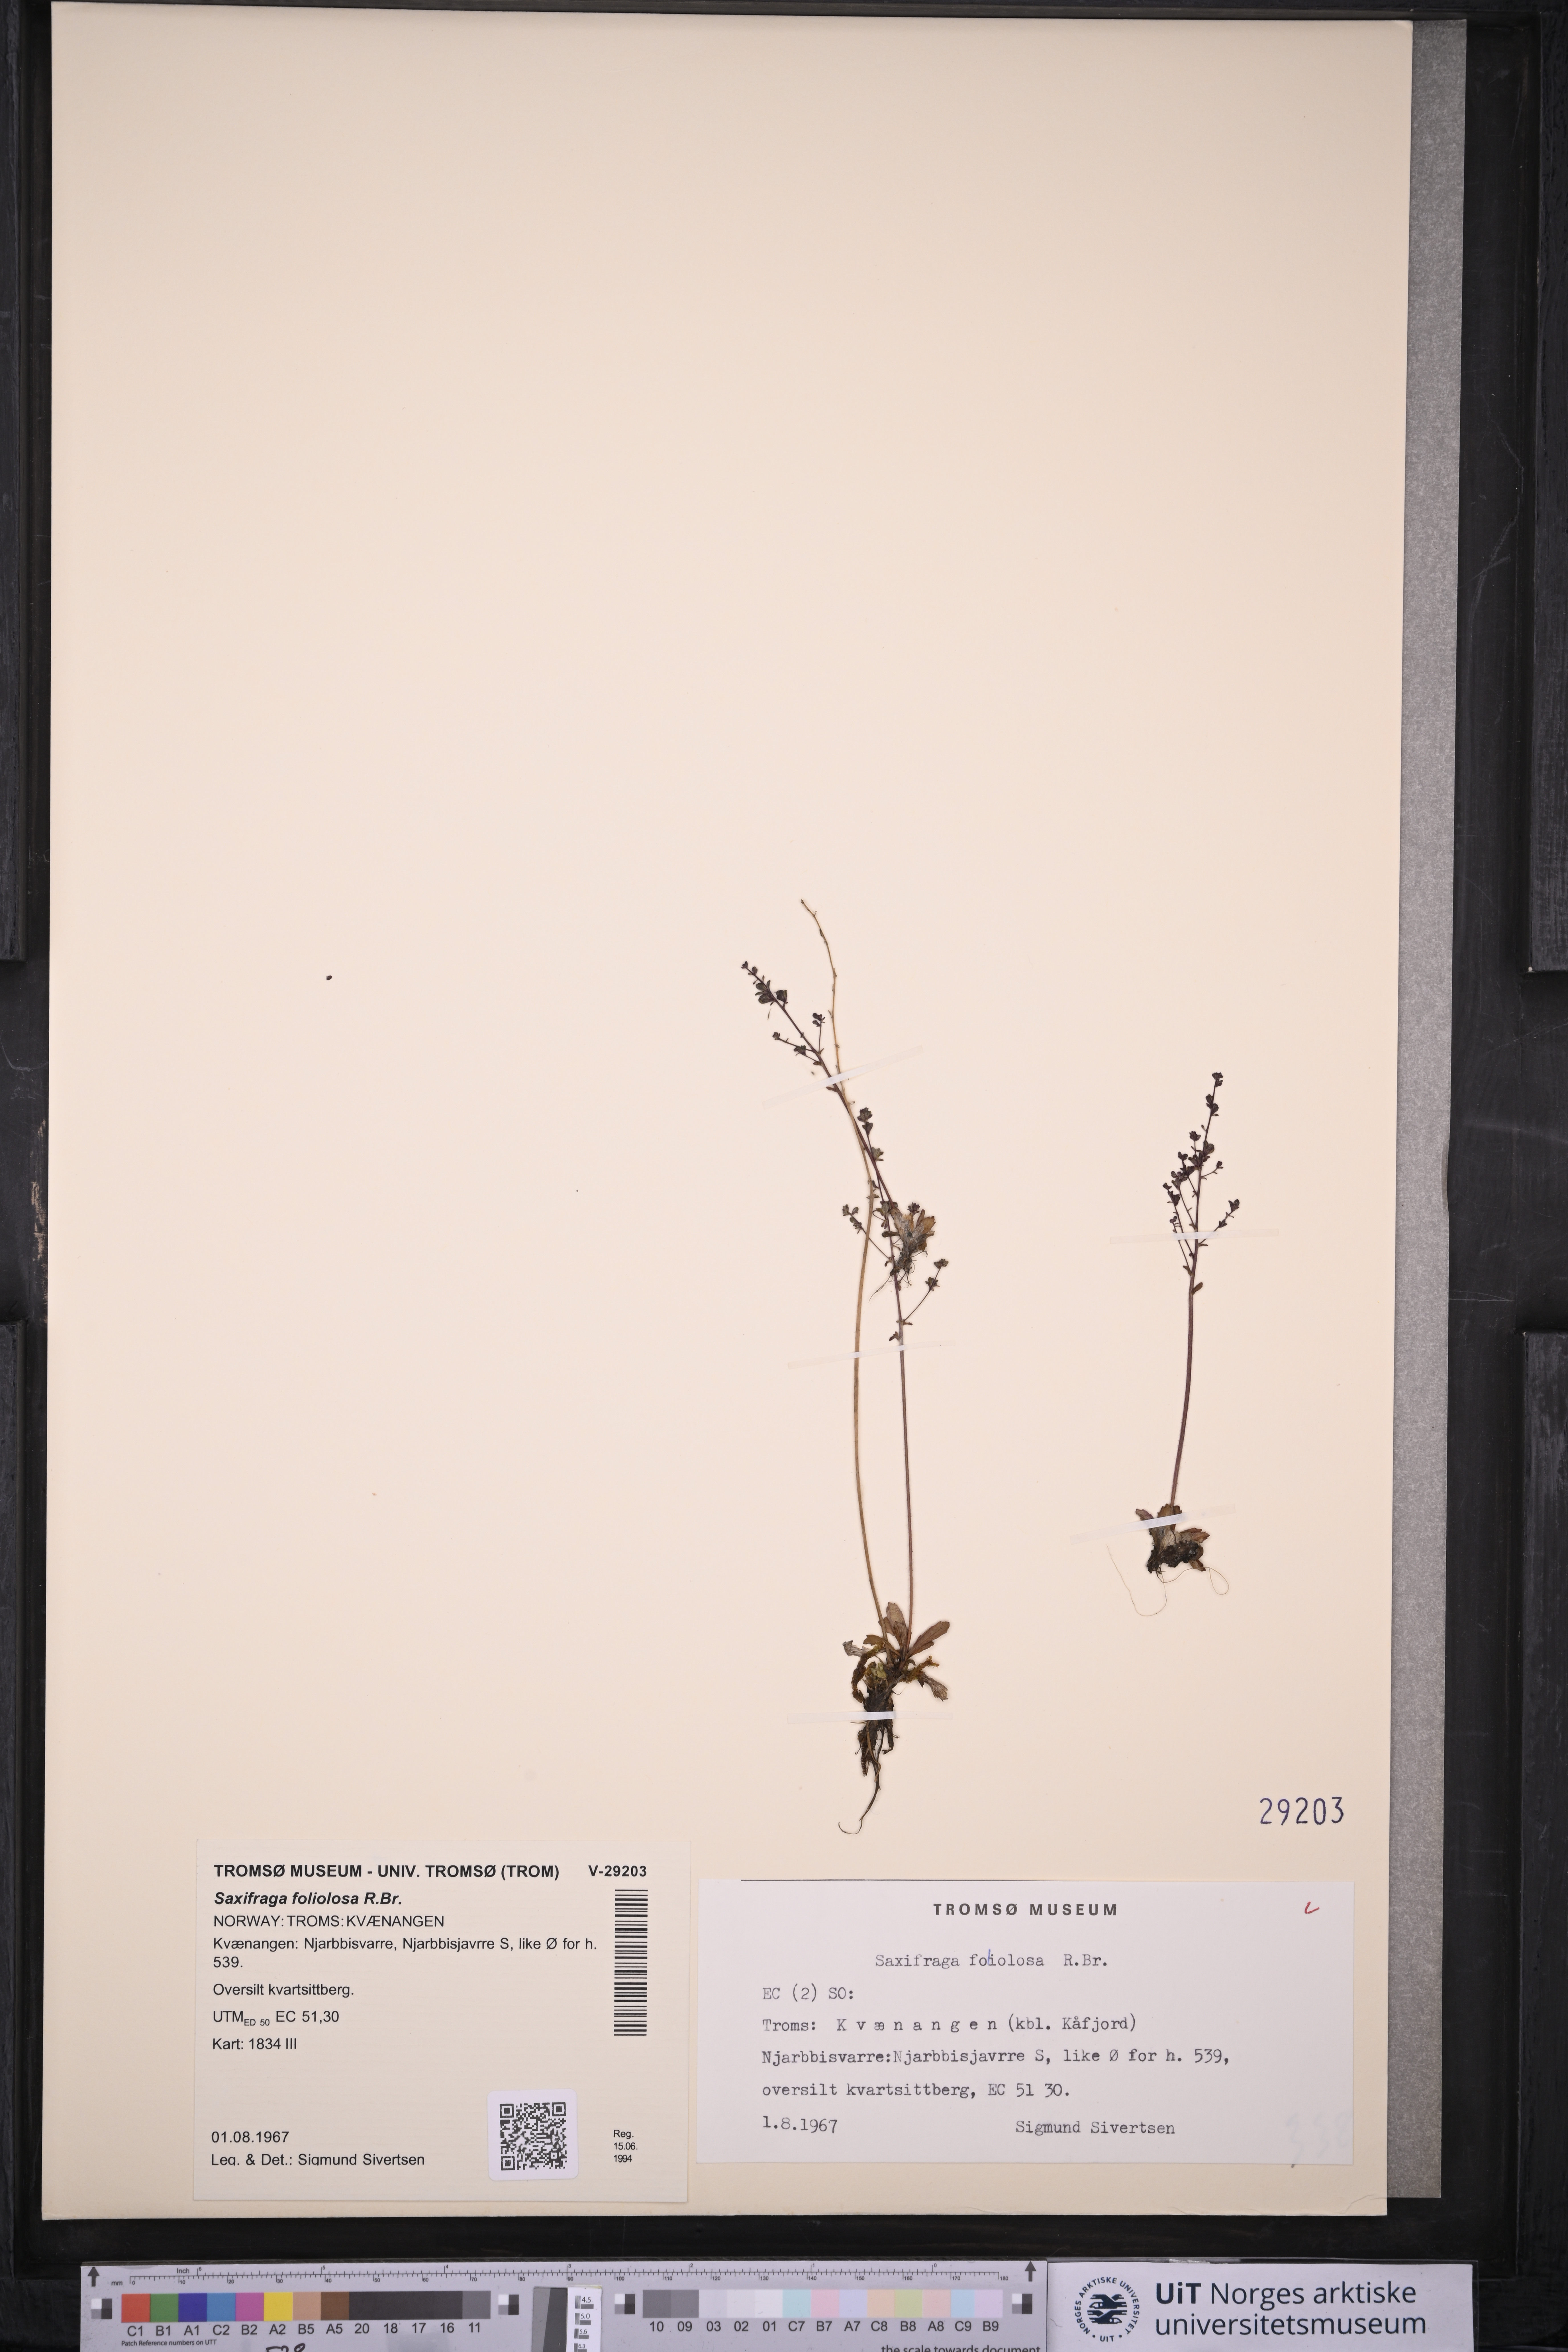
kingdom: Plantae
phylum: Tracheophyta
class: Magnoliopsida
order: Saxifragales
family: Saxifragaceae
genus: Micranthes
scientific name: Micranthes foliolosa
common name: Leafystem saxifrage
